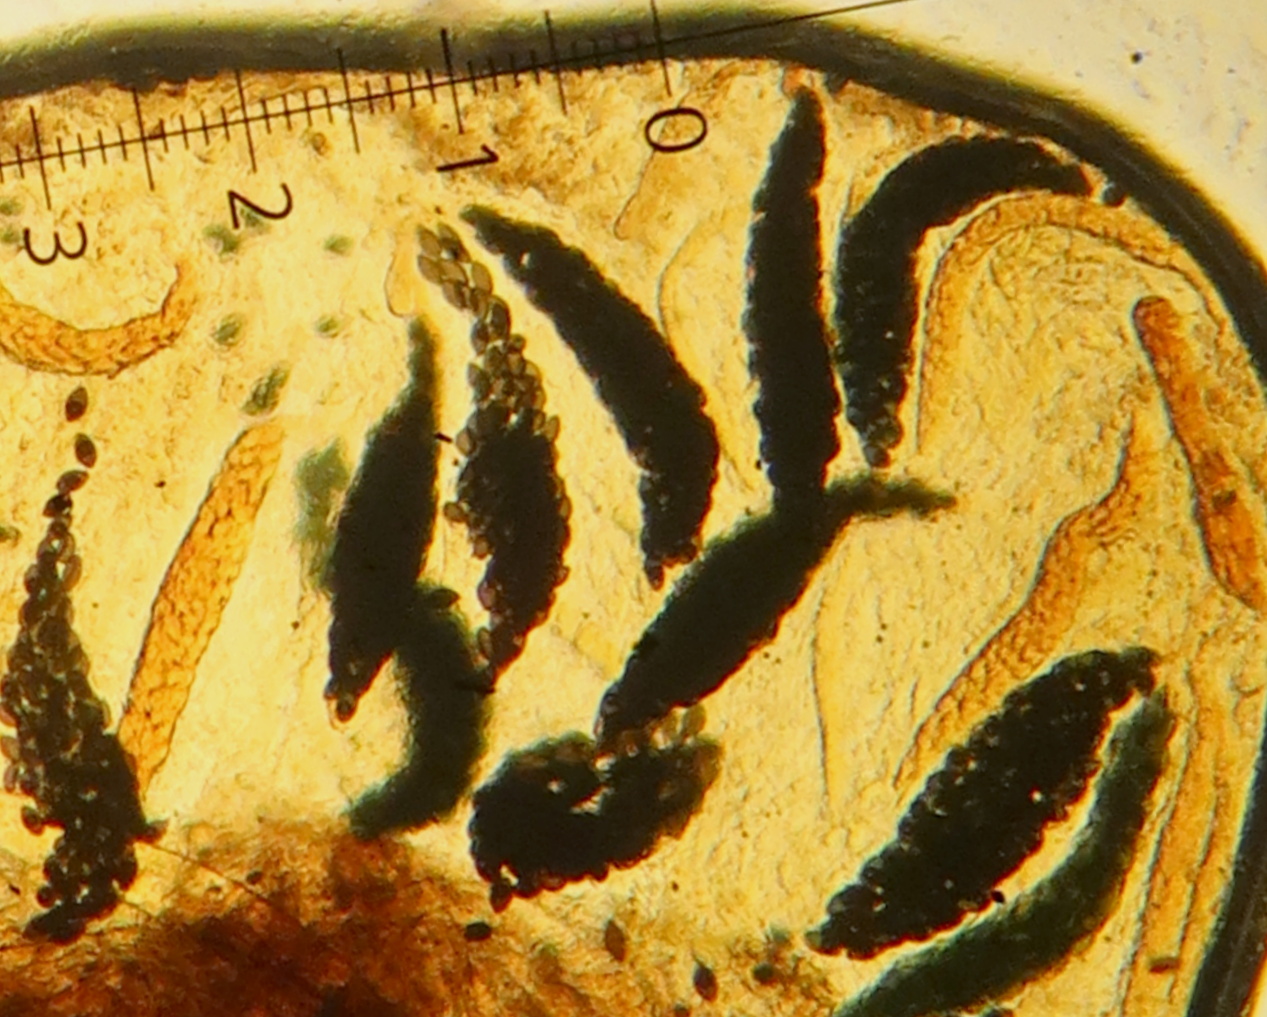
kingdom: Fungi
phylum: Ascomycota
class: Sordariomycetes
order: Sordariales
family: Podosporaceae
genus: Triangularia
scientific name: Triangularia setosa
